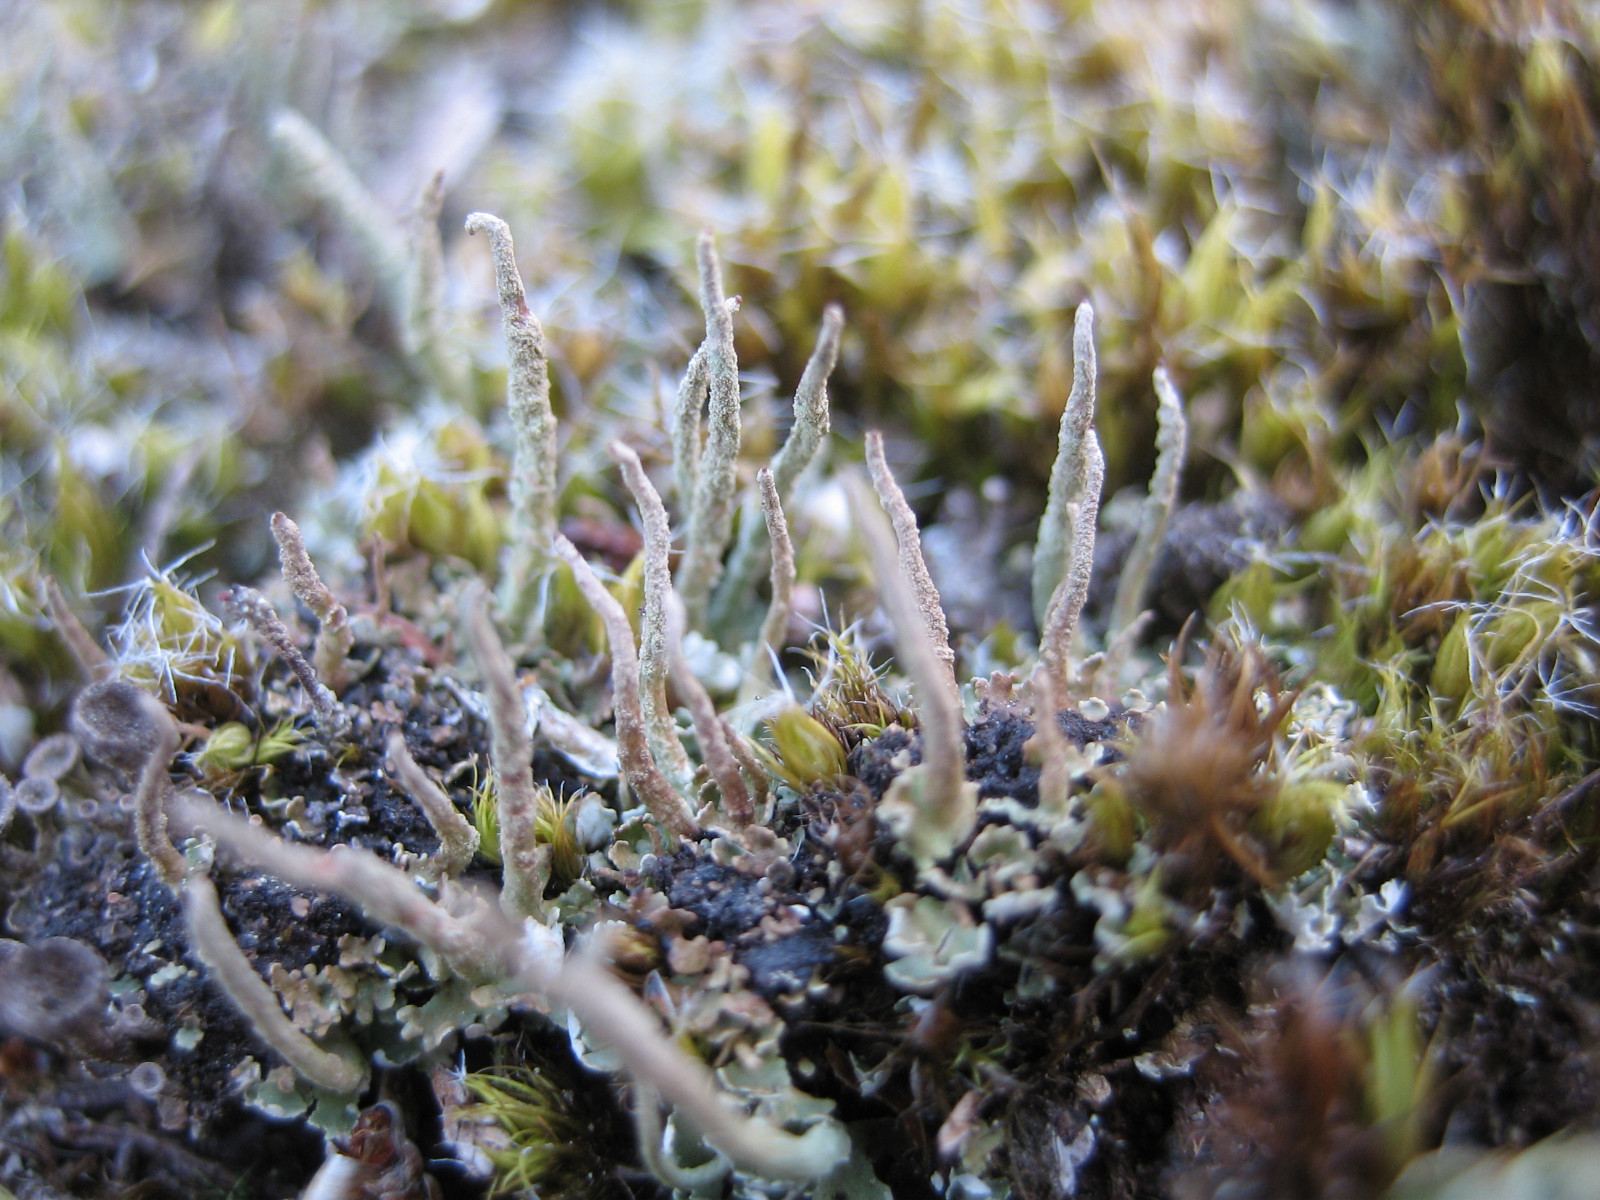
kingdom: Fungi
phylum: Ascomycota
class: Lecanoromycetes
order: Lecanorales
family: Cladoniaceae
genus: Cladonia
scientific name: Cladonia cornuta
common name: syl-bægerlav
